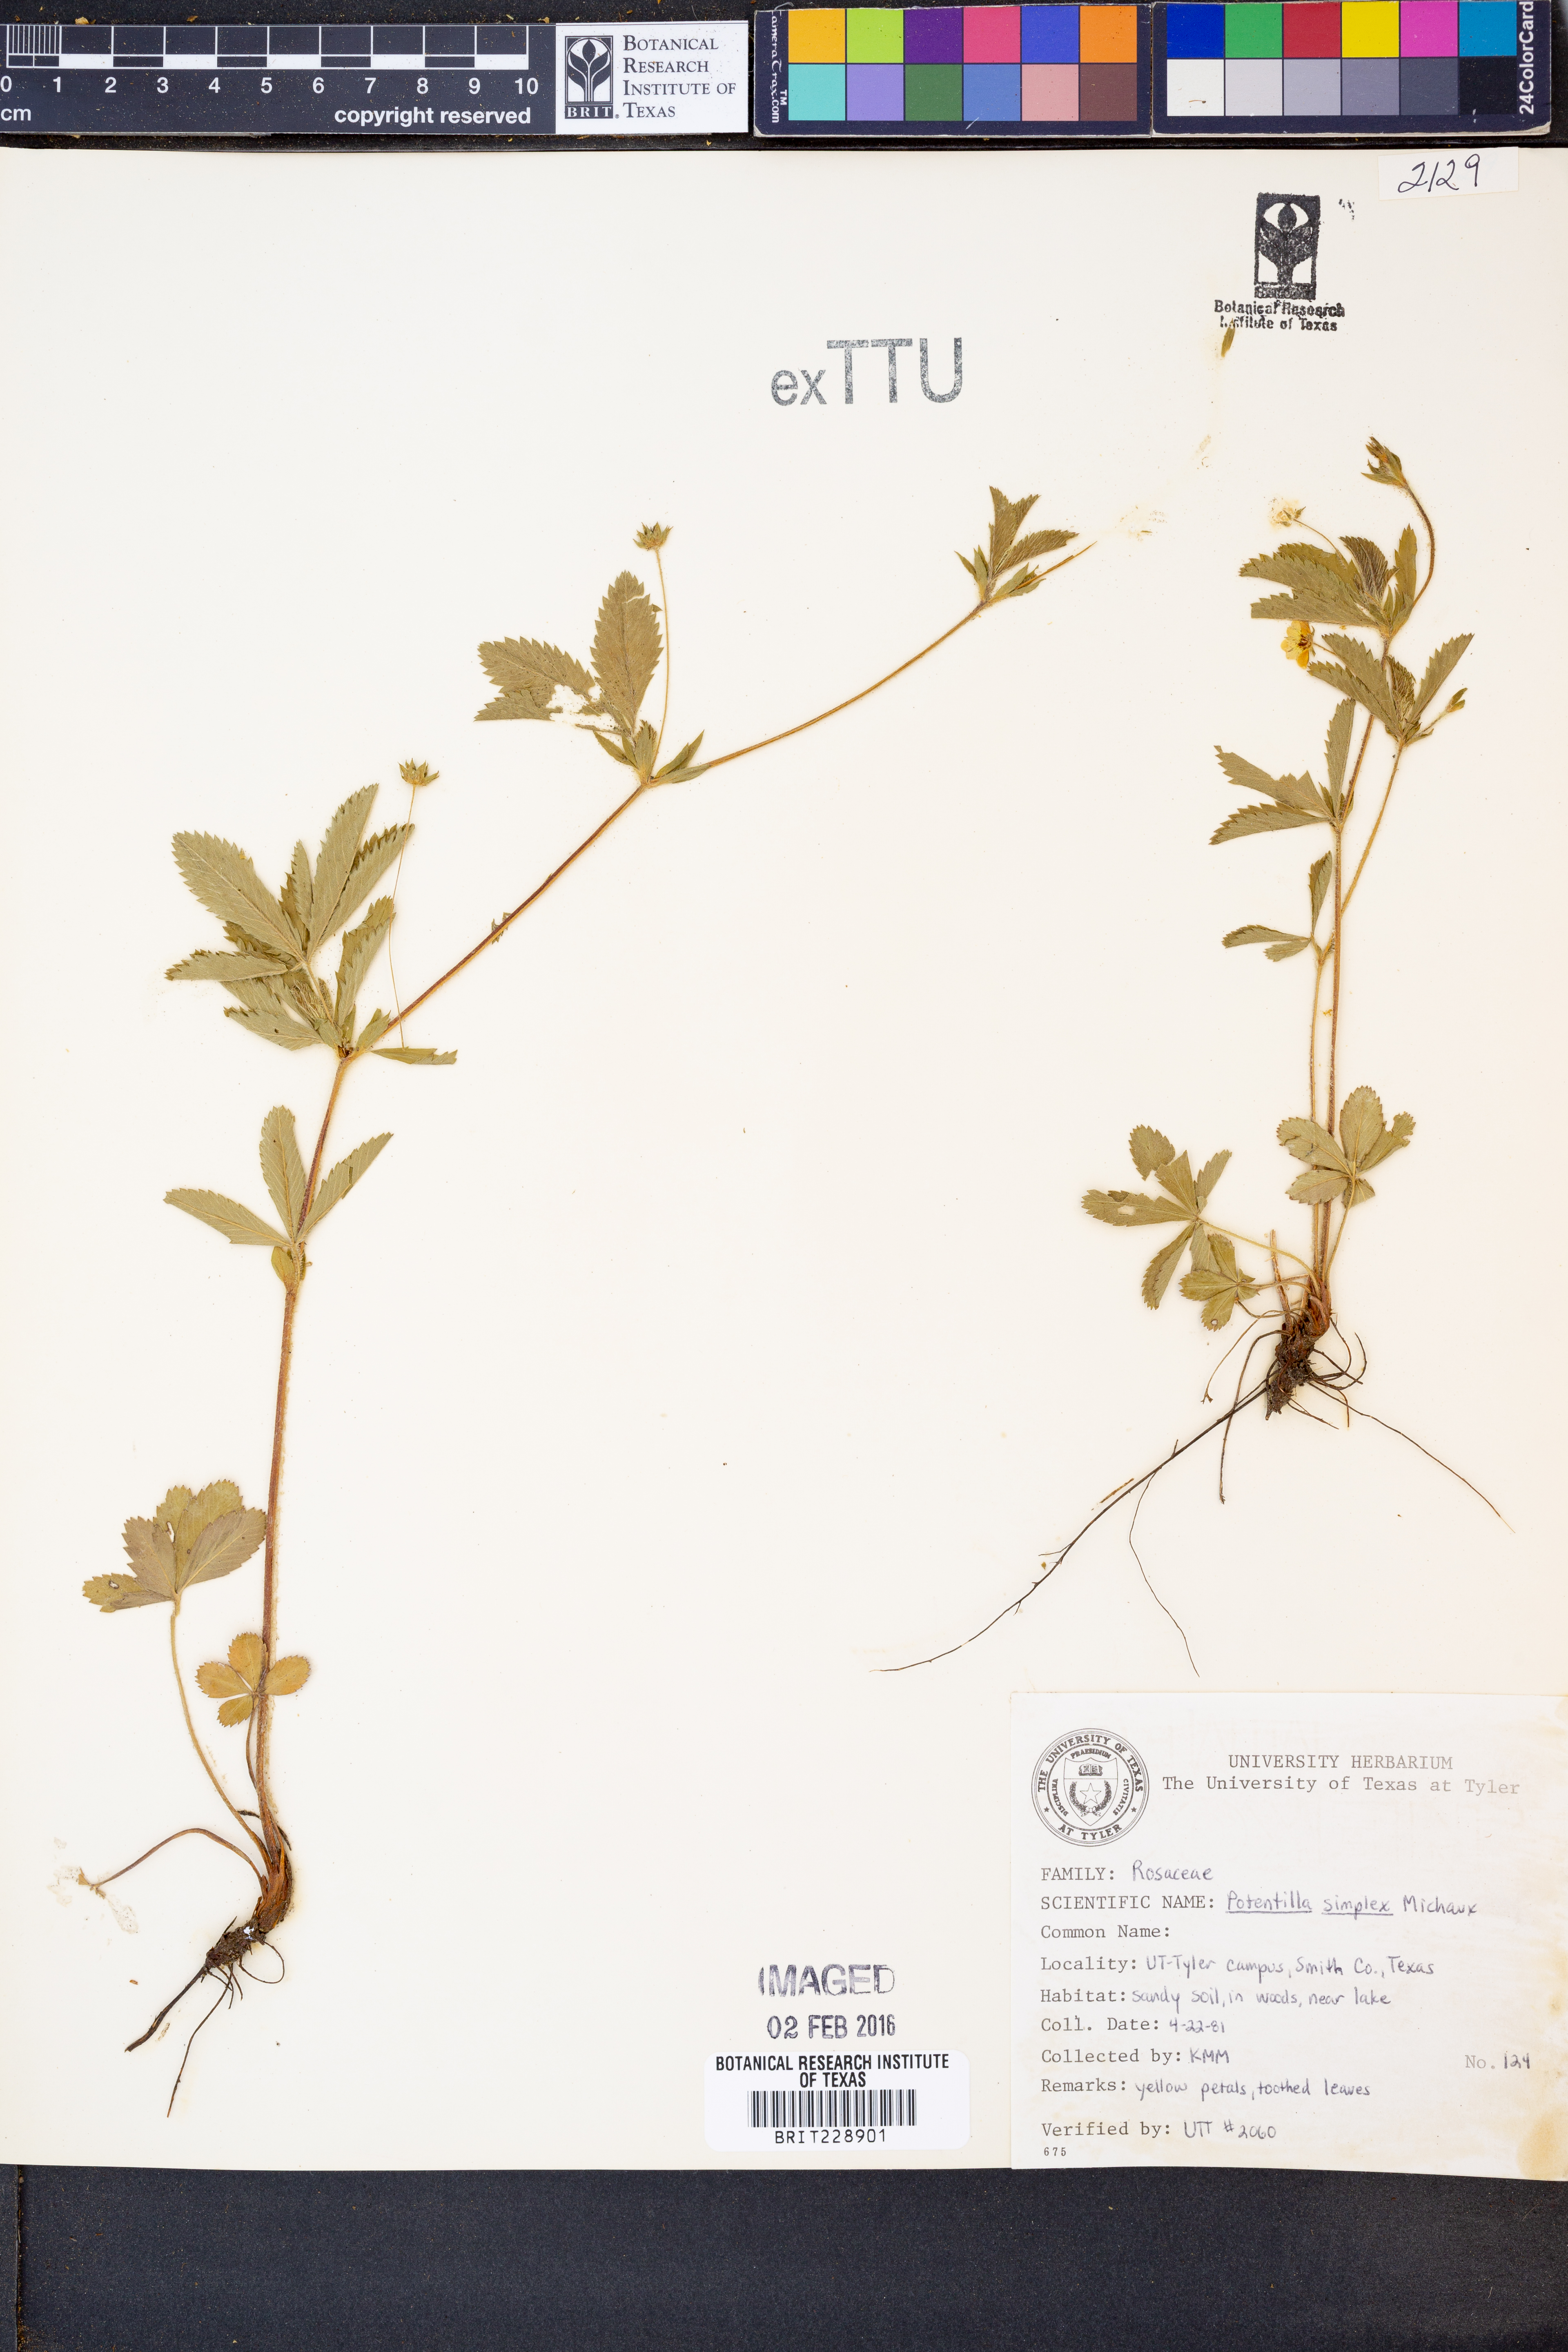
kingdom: Plantae
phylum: Tracheophyta
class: Magnoliopsida
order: Rosales
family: Rosaceae
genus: Potentilla
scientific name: Potentilla simplex
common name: Old field cinquefoil
